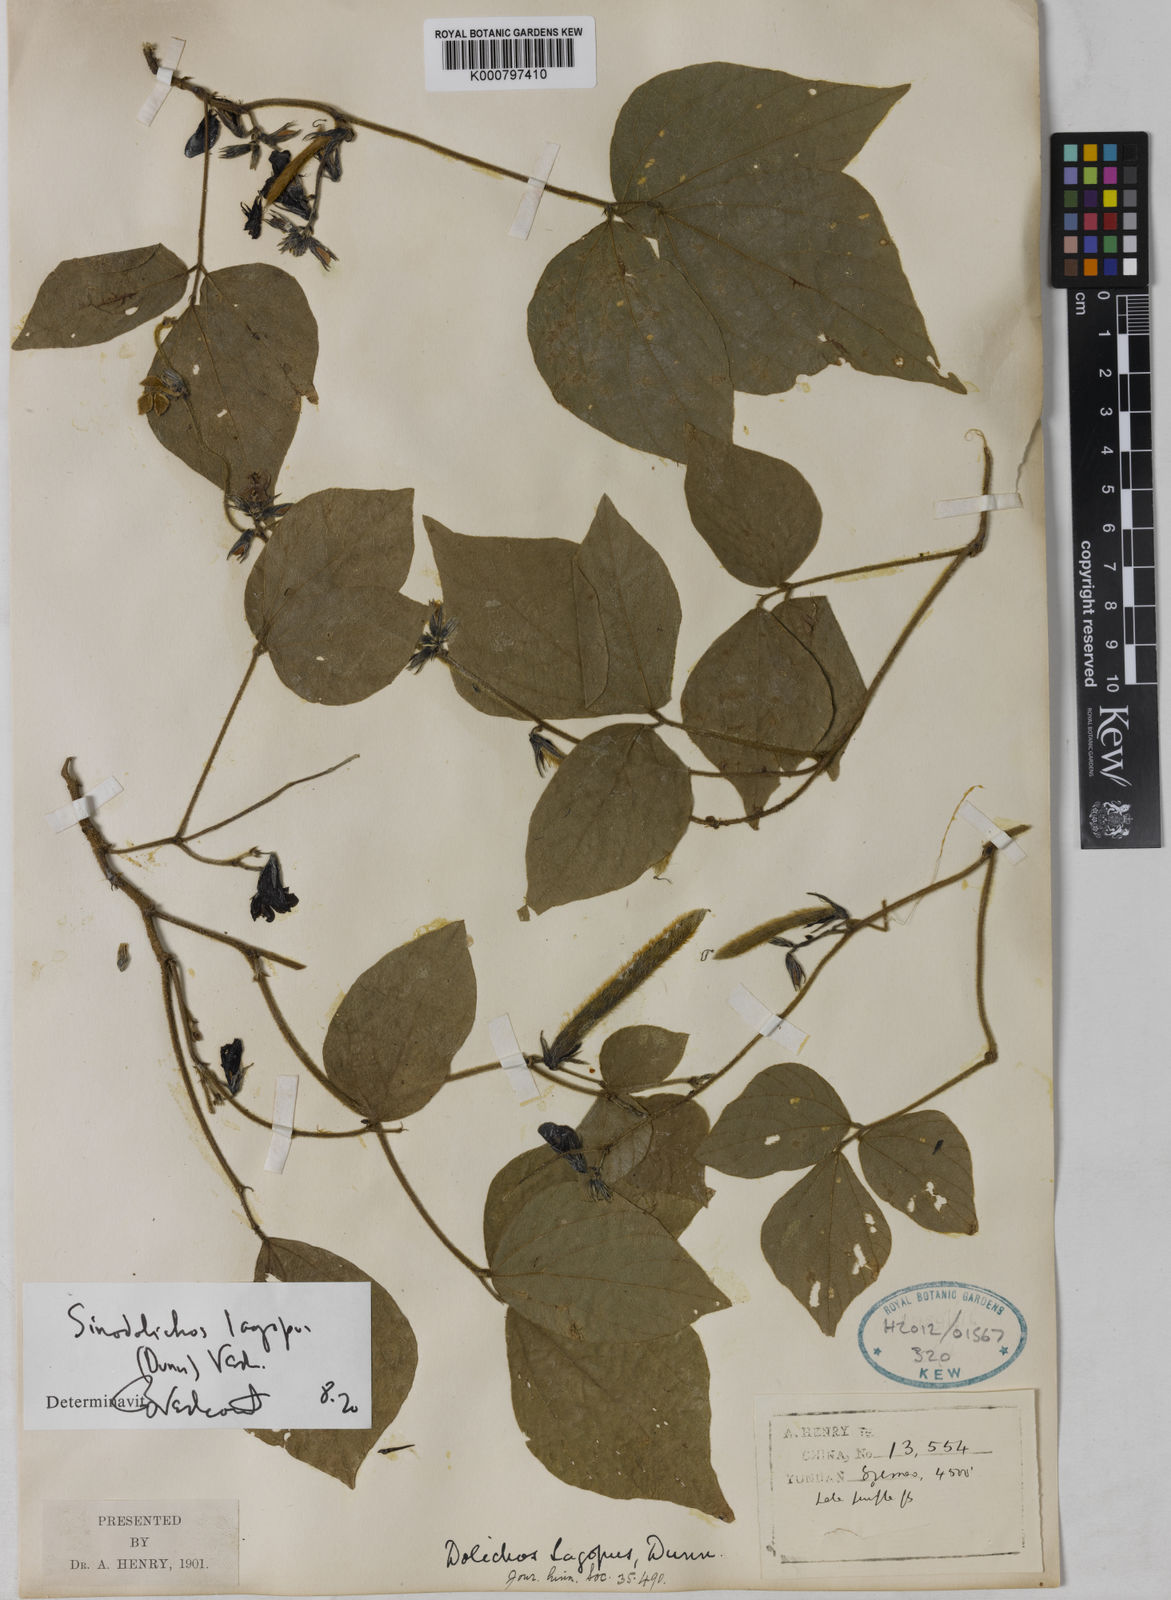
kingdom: Plantae
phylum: Tracheophyta
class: Magnoliopsida
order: Fabales
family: Fabaceae
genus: Sinodolichos
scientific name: Sinodolichos lagopus
